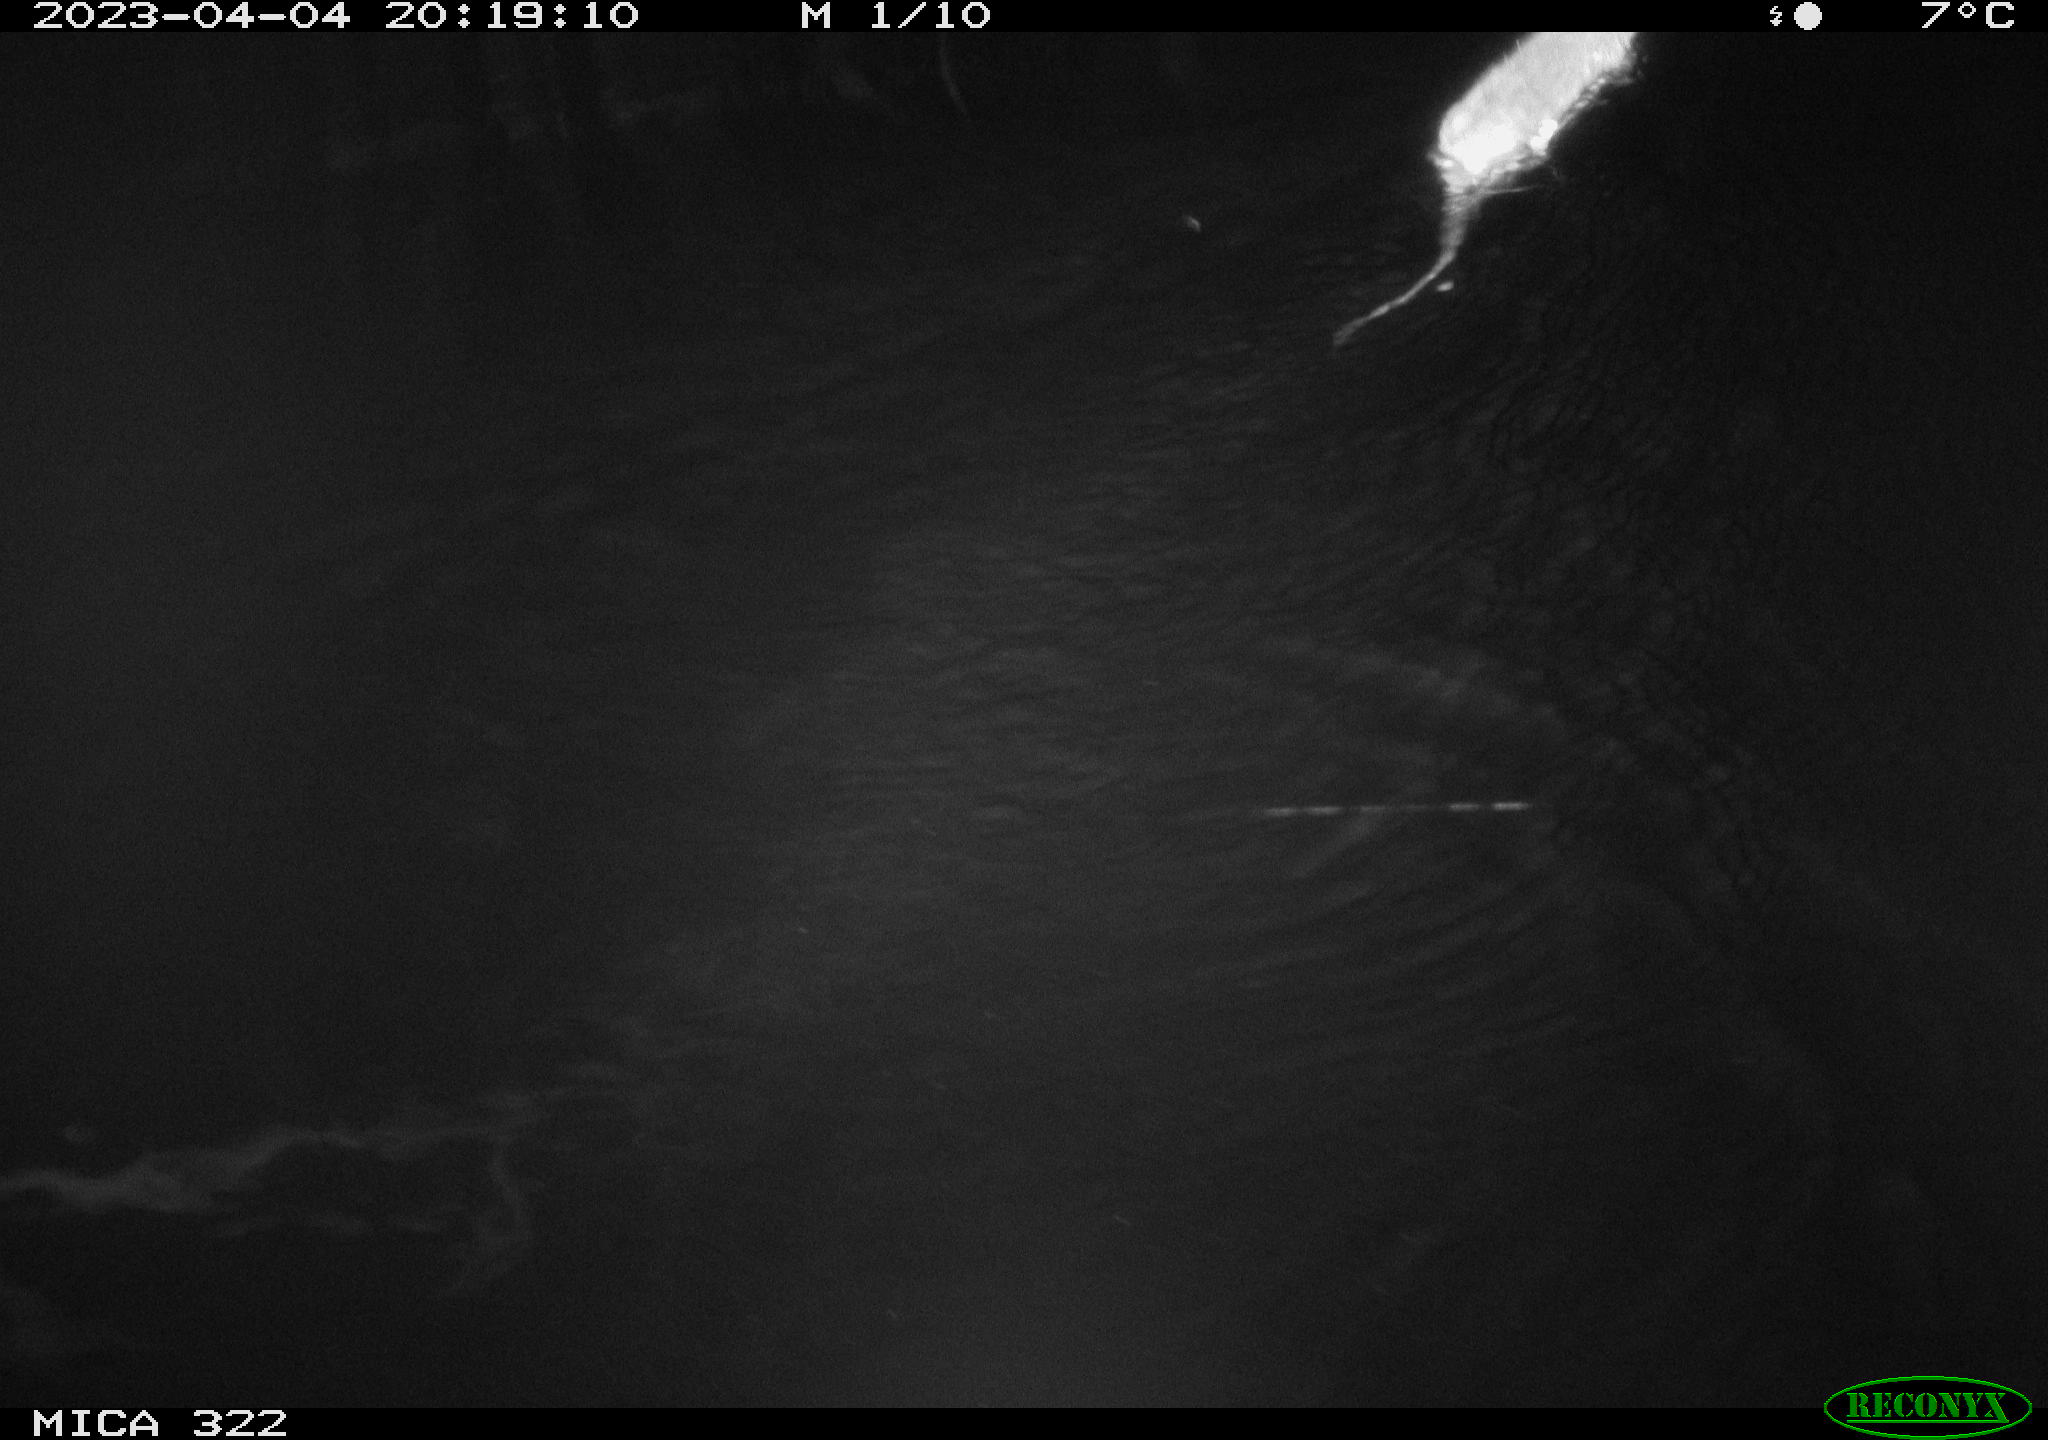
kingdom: Animalia
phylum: Chordata
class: Mammalia
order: Rodentia
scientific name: Rodentia
